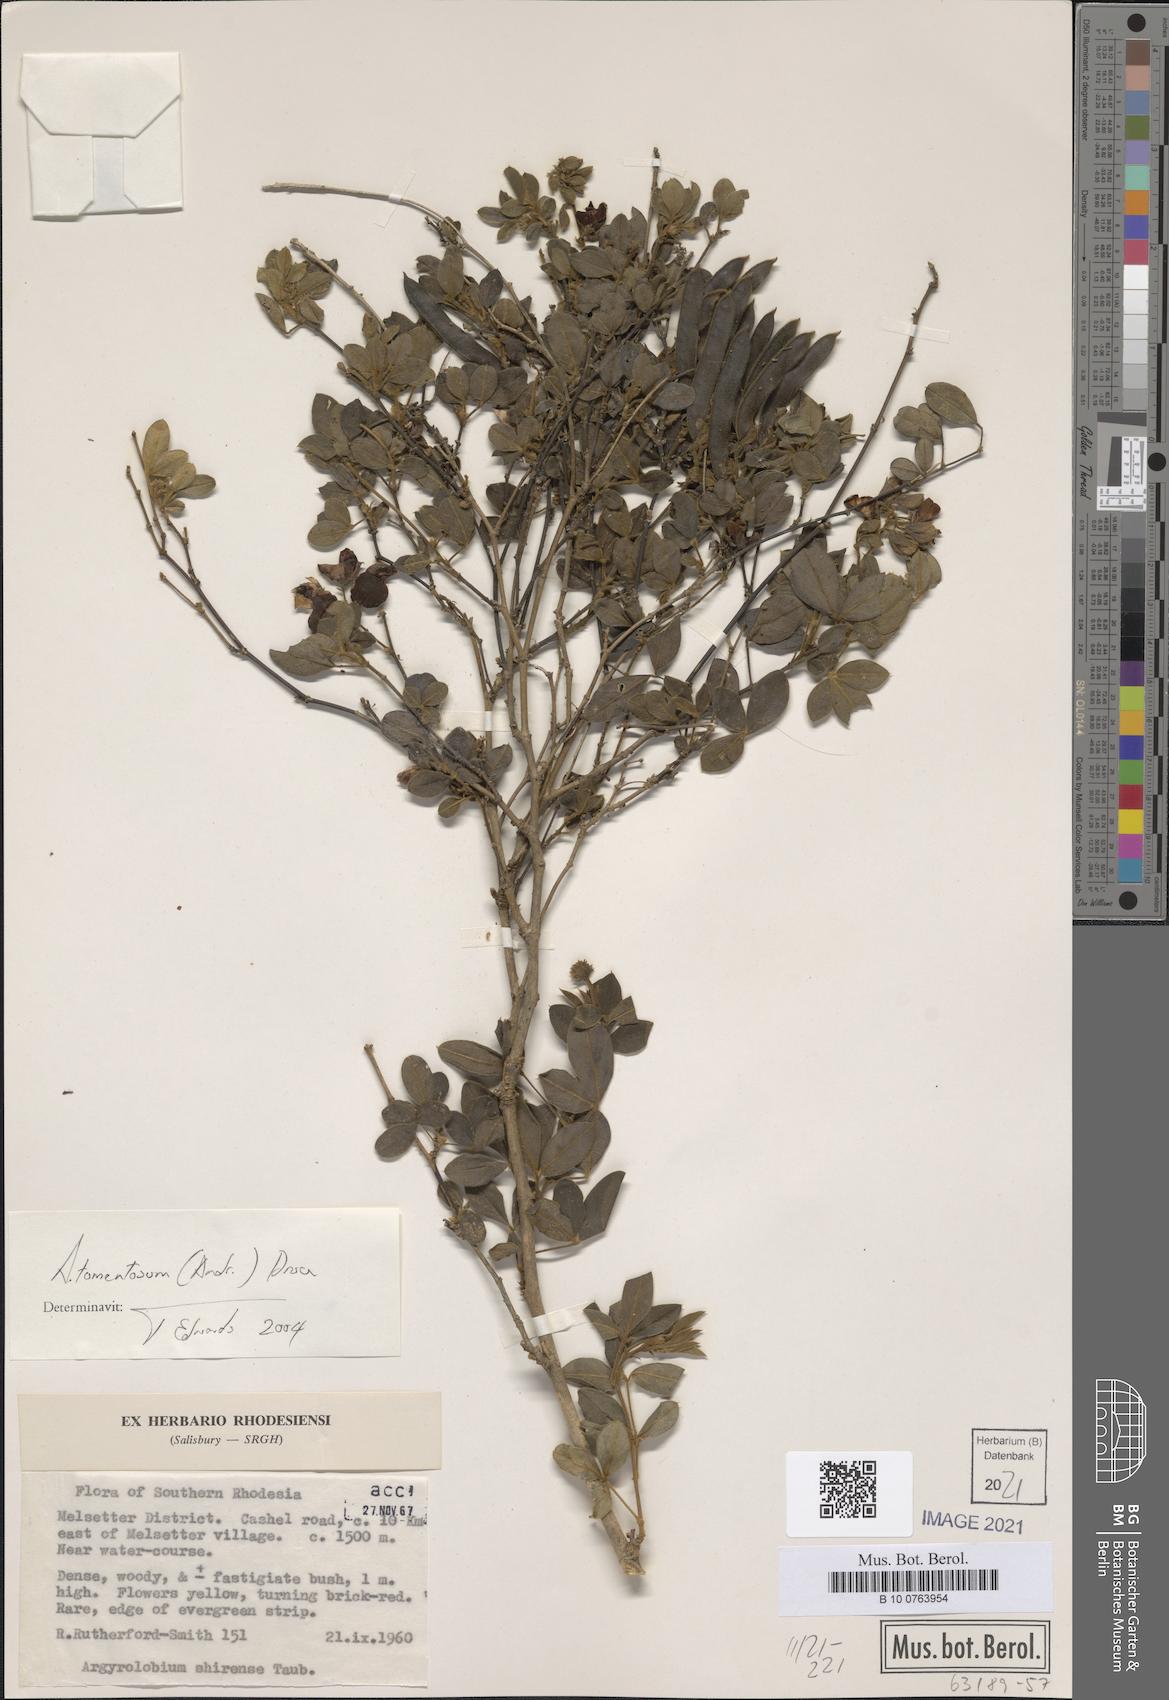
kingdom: Plantae
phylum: Tracheophyta
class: Magnoliopsida
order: Fabales
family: Fabaceae
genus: Argyrolobium
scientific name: Argyrolobium tomentosum
